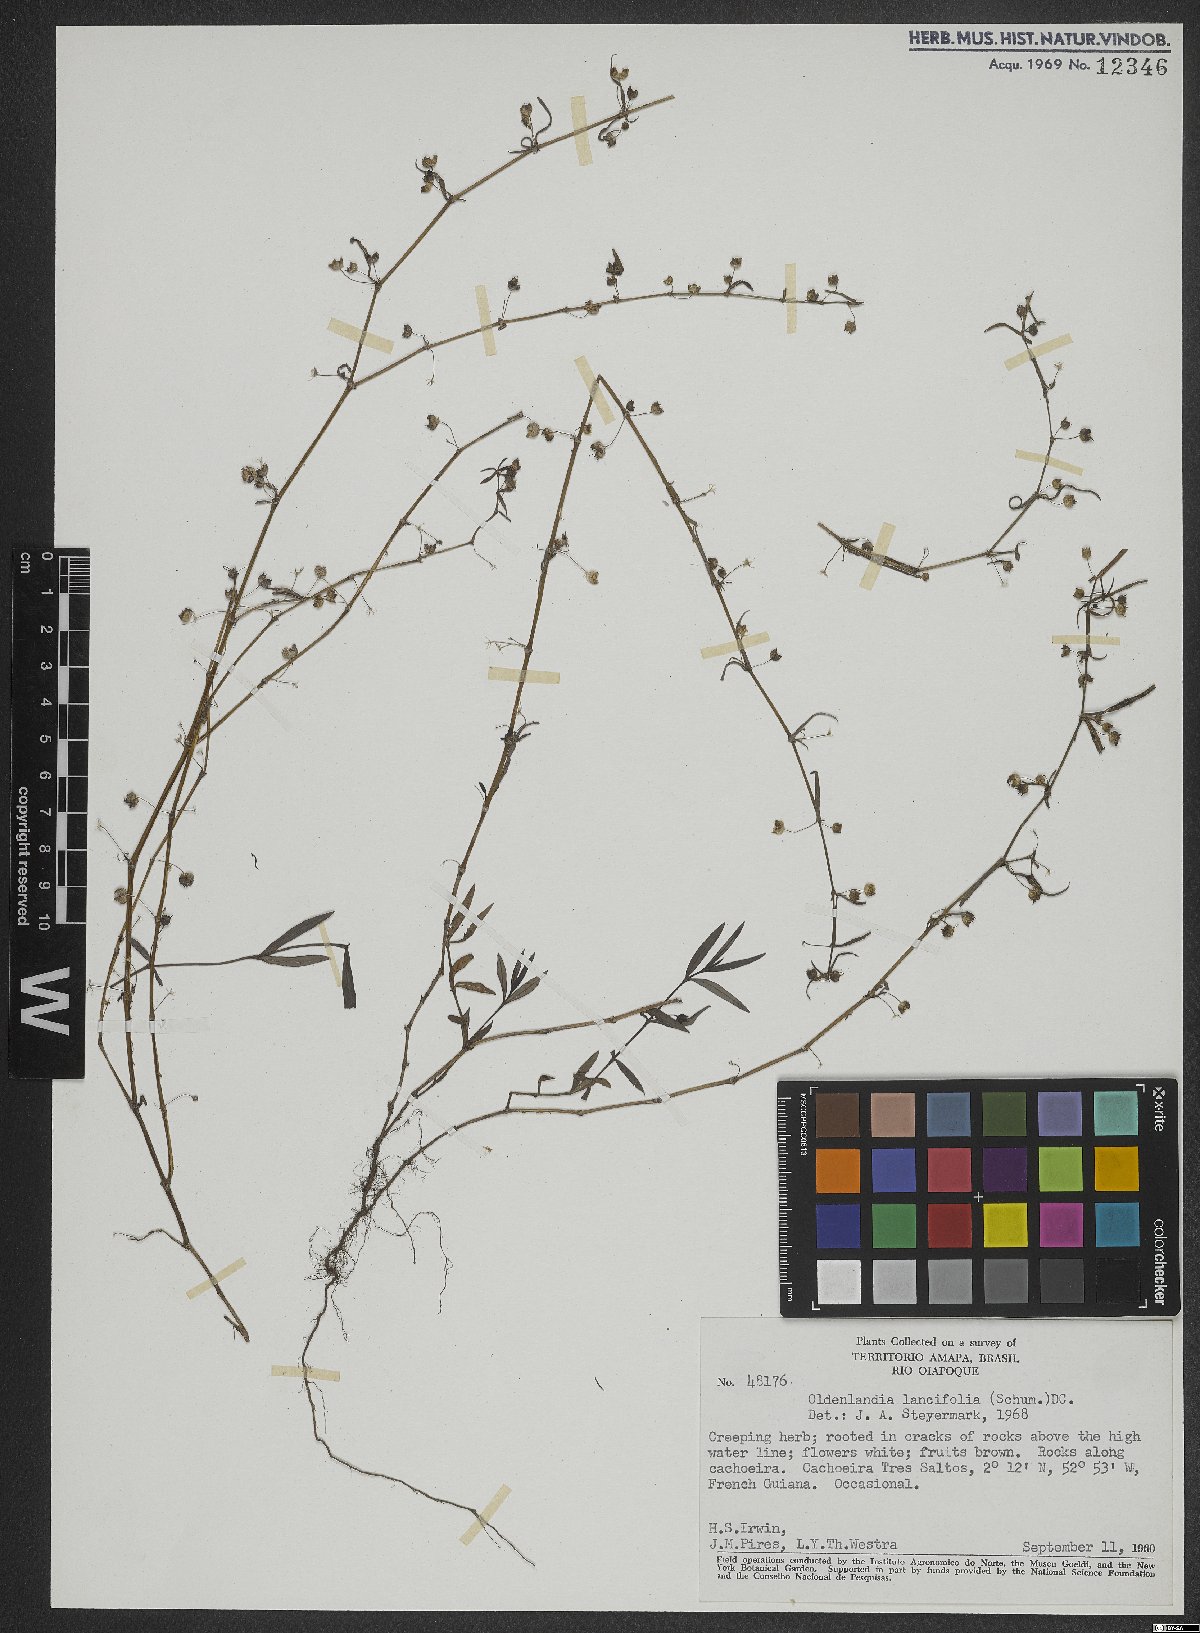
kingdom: Plantae
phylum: Tracheophyta
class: Magnoliopsida
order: Gentianales
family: Rubiaceae
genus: Oldenlandia
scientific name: Oldenlandia lancifolia
